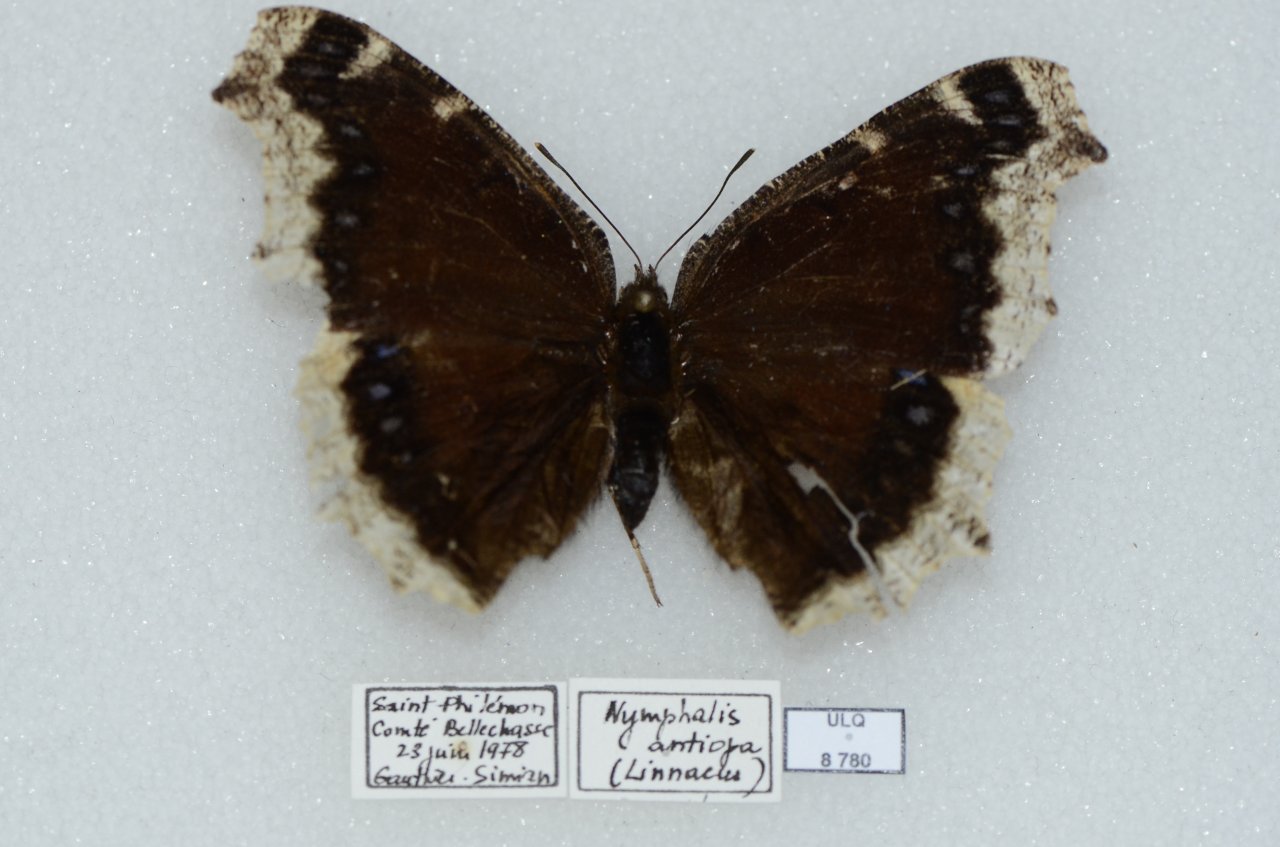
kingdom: Animalia
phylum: Arthropoda
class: Insecta
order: Lepidoptera
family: Nymphalidae
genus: Nymphalis
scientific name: Nymphalis antiopa
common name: Mourning Cloak
